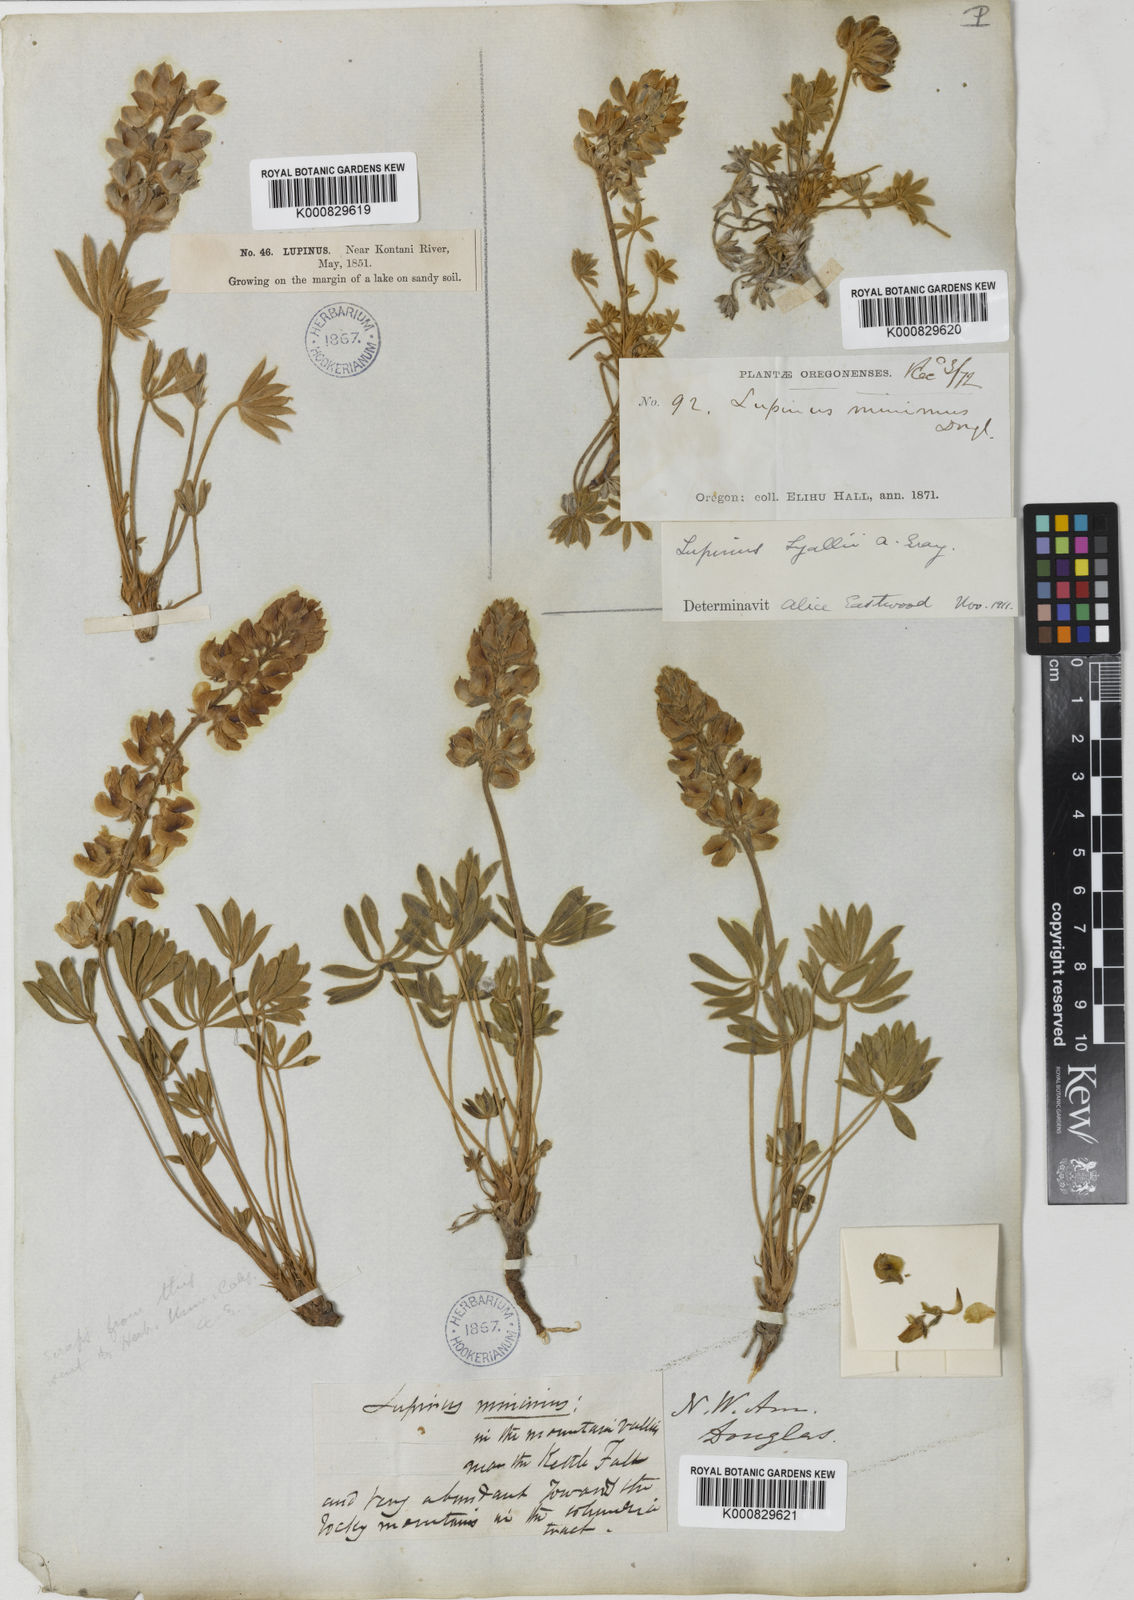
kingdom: Plantae
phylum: Tracheophyta
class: Magnoliopsida
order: Fabales
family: Fabaceae
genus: Lupinus
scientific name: Lupinus
